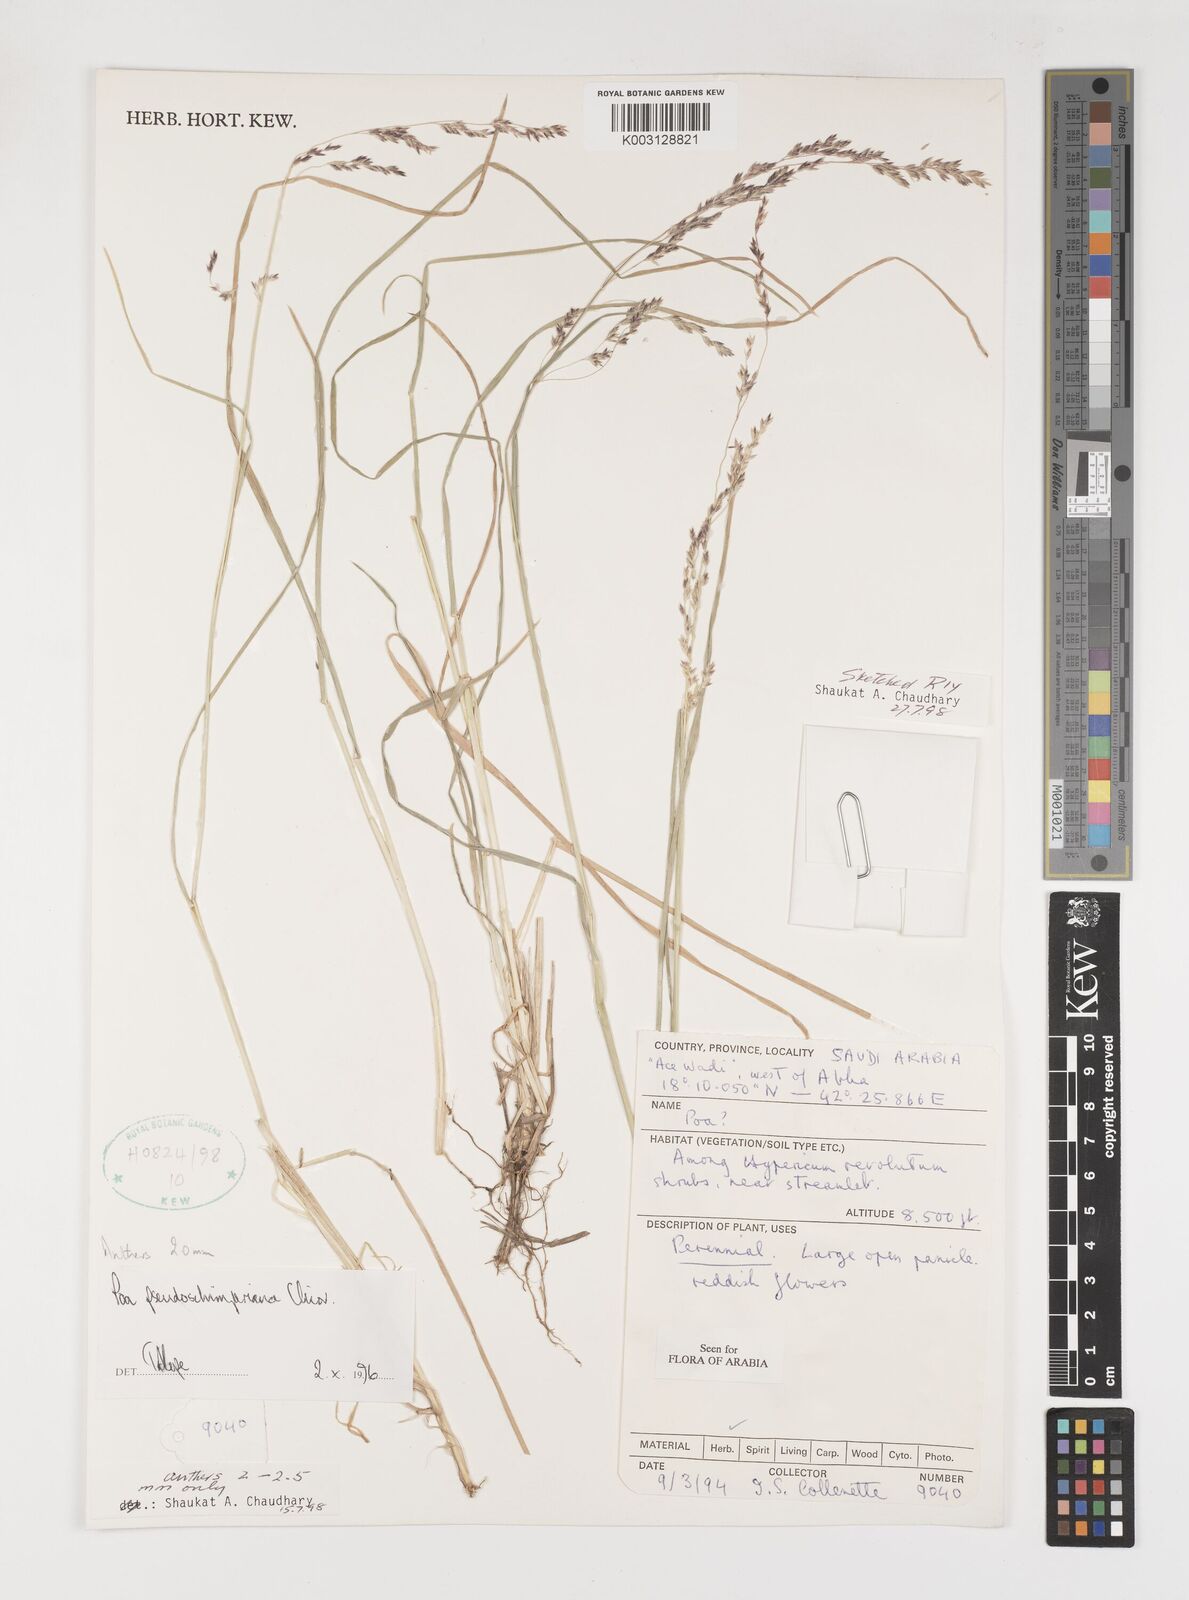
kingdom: Plantae
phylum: Tracheophyta
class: Liliopsida
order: Poales
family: Poaceae
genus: Poa
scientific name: Poa pseudoschimperiana
